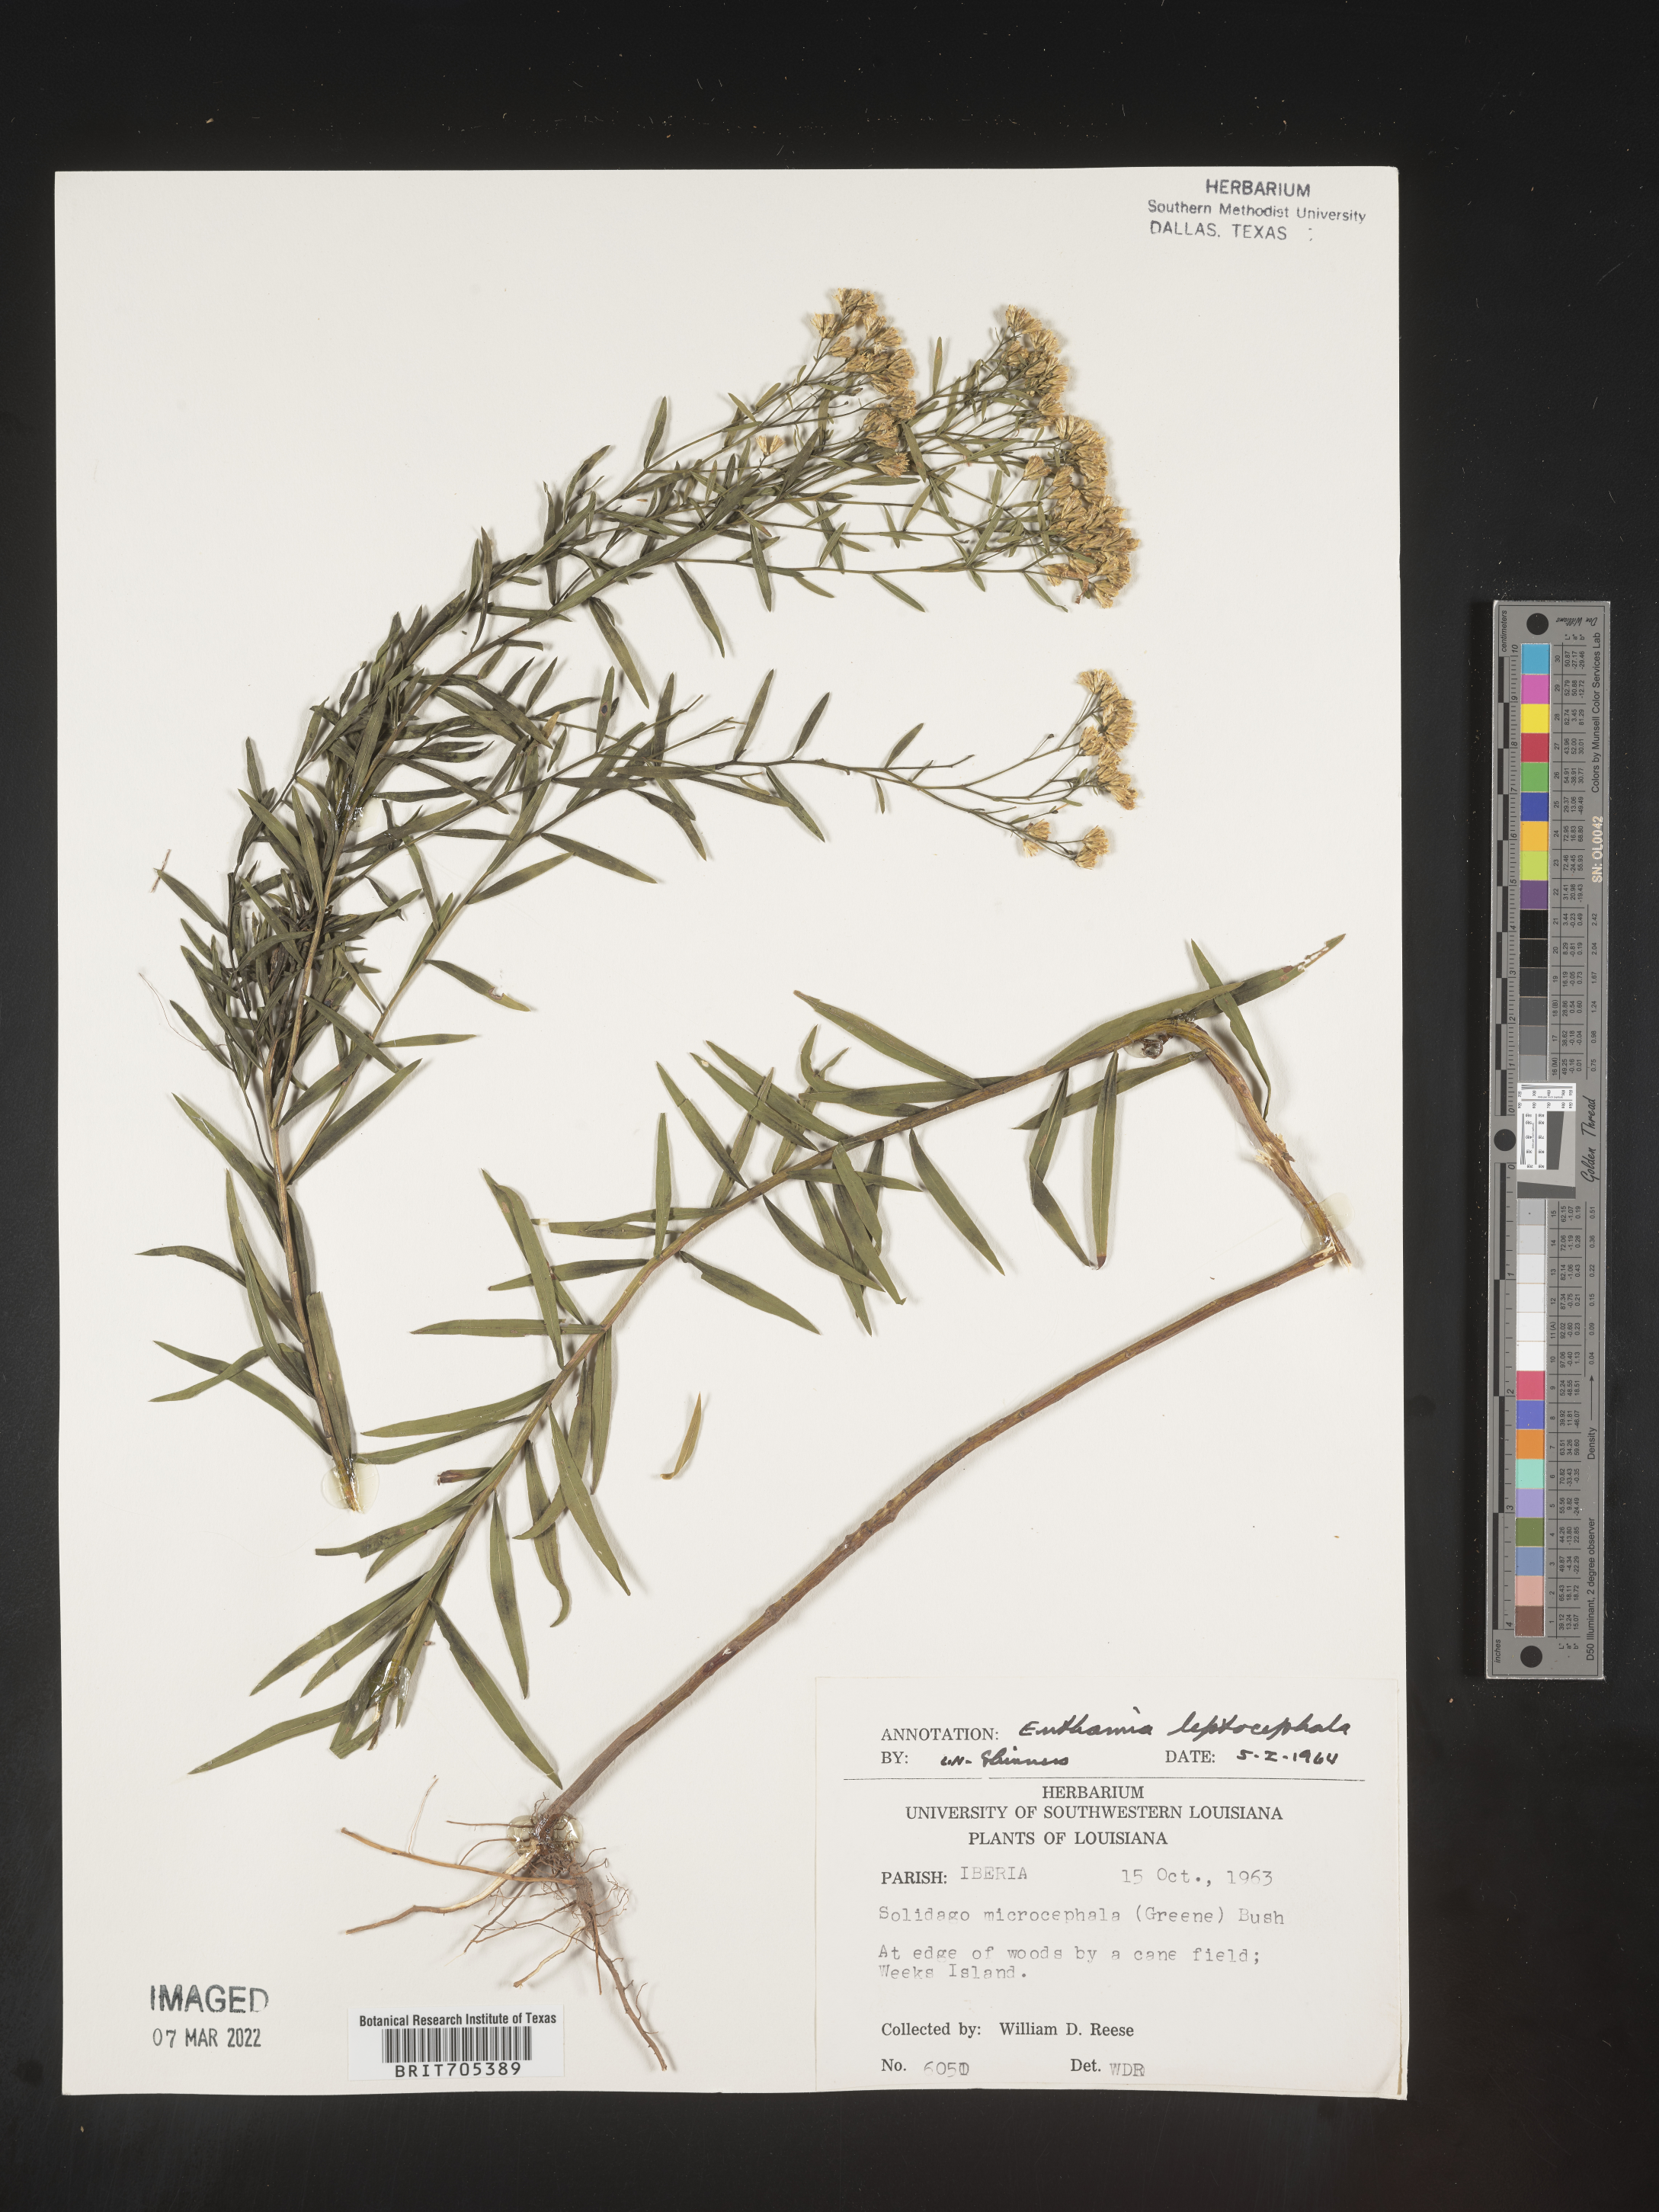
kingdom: Plantae
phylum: Tracheophyta
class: Magnoliopsida
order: Asterales
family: Asteraceae
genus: Euthamia
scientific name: Euthamia leptocephala
